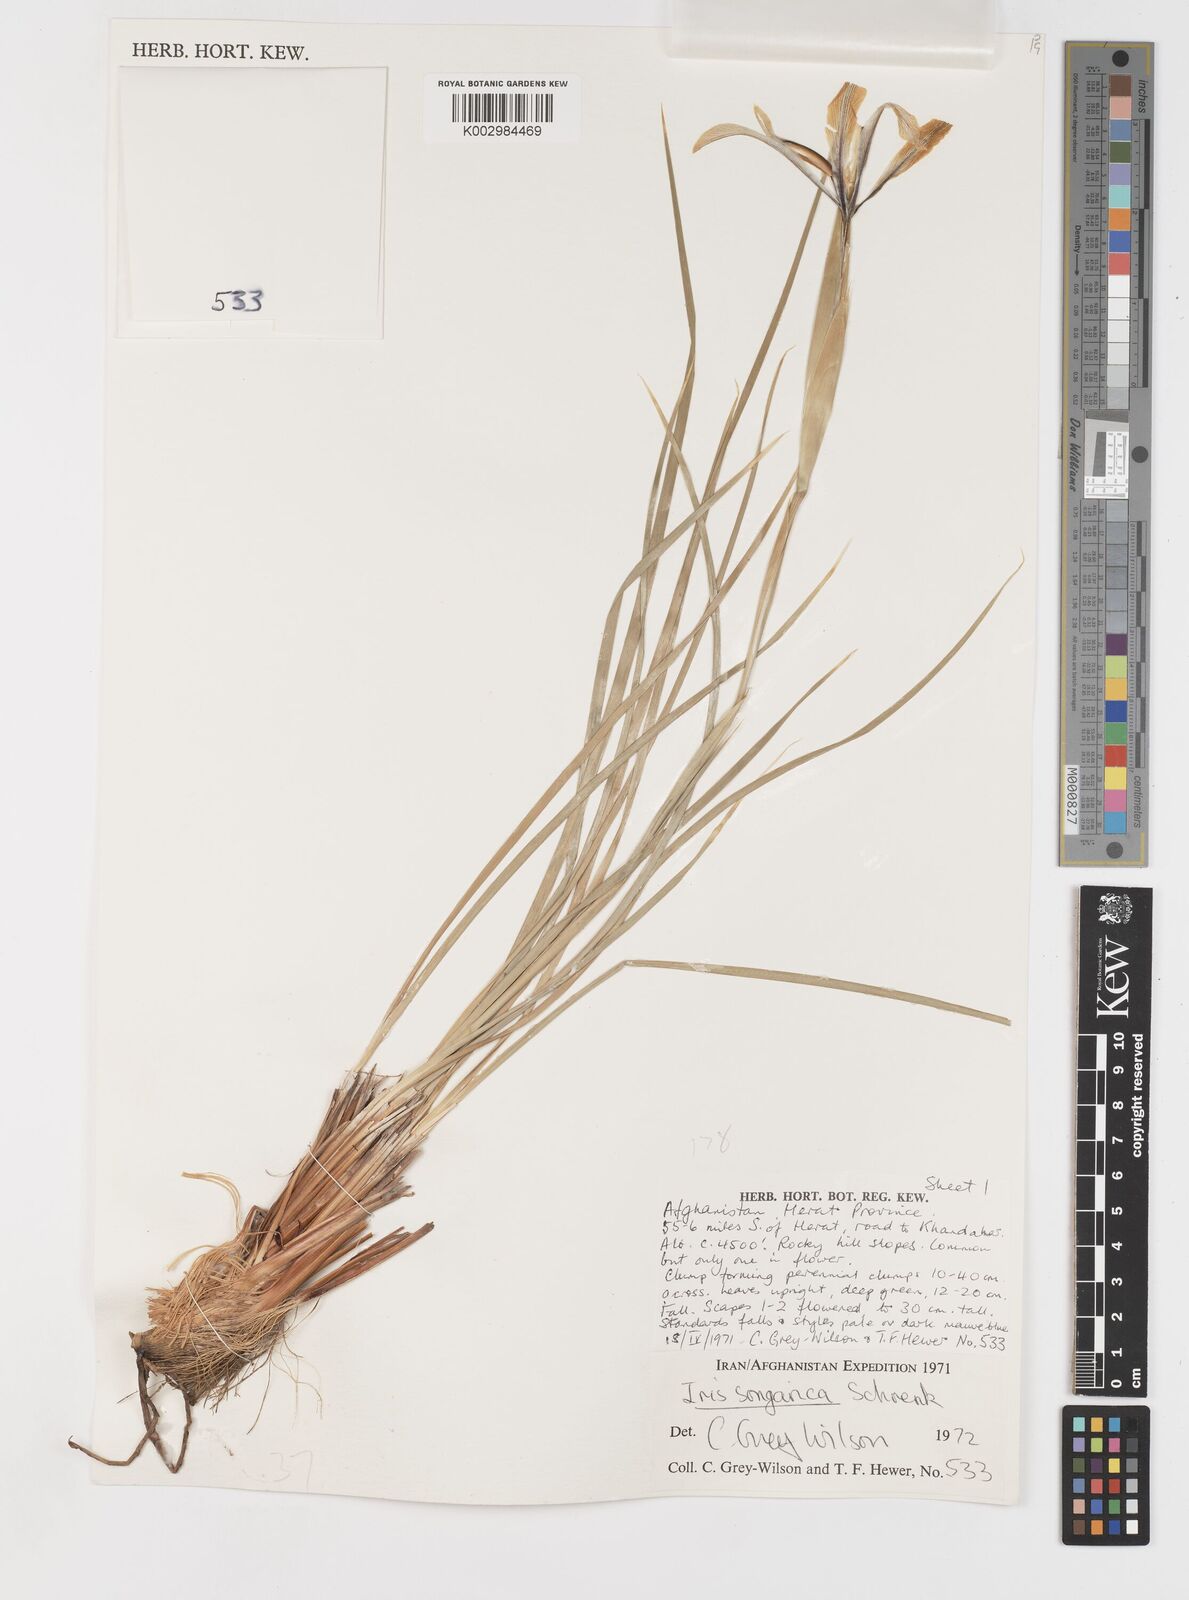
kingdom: Plantae
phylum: Tracheophyta
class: Liliopsida
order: Asparagales
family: Iridaceae
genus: Iris
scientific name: Iris songarica
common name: Songar iris
